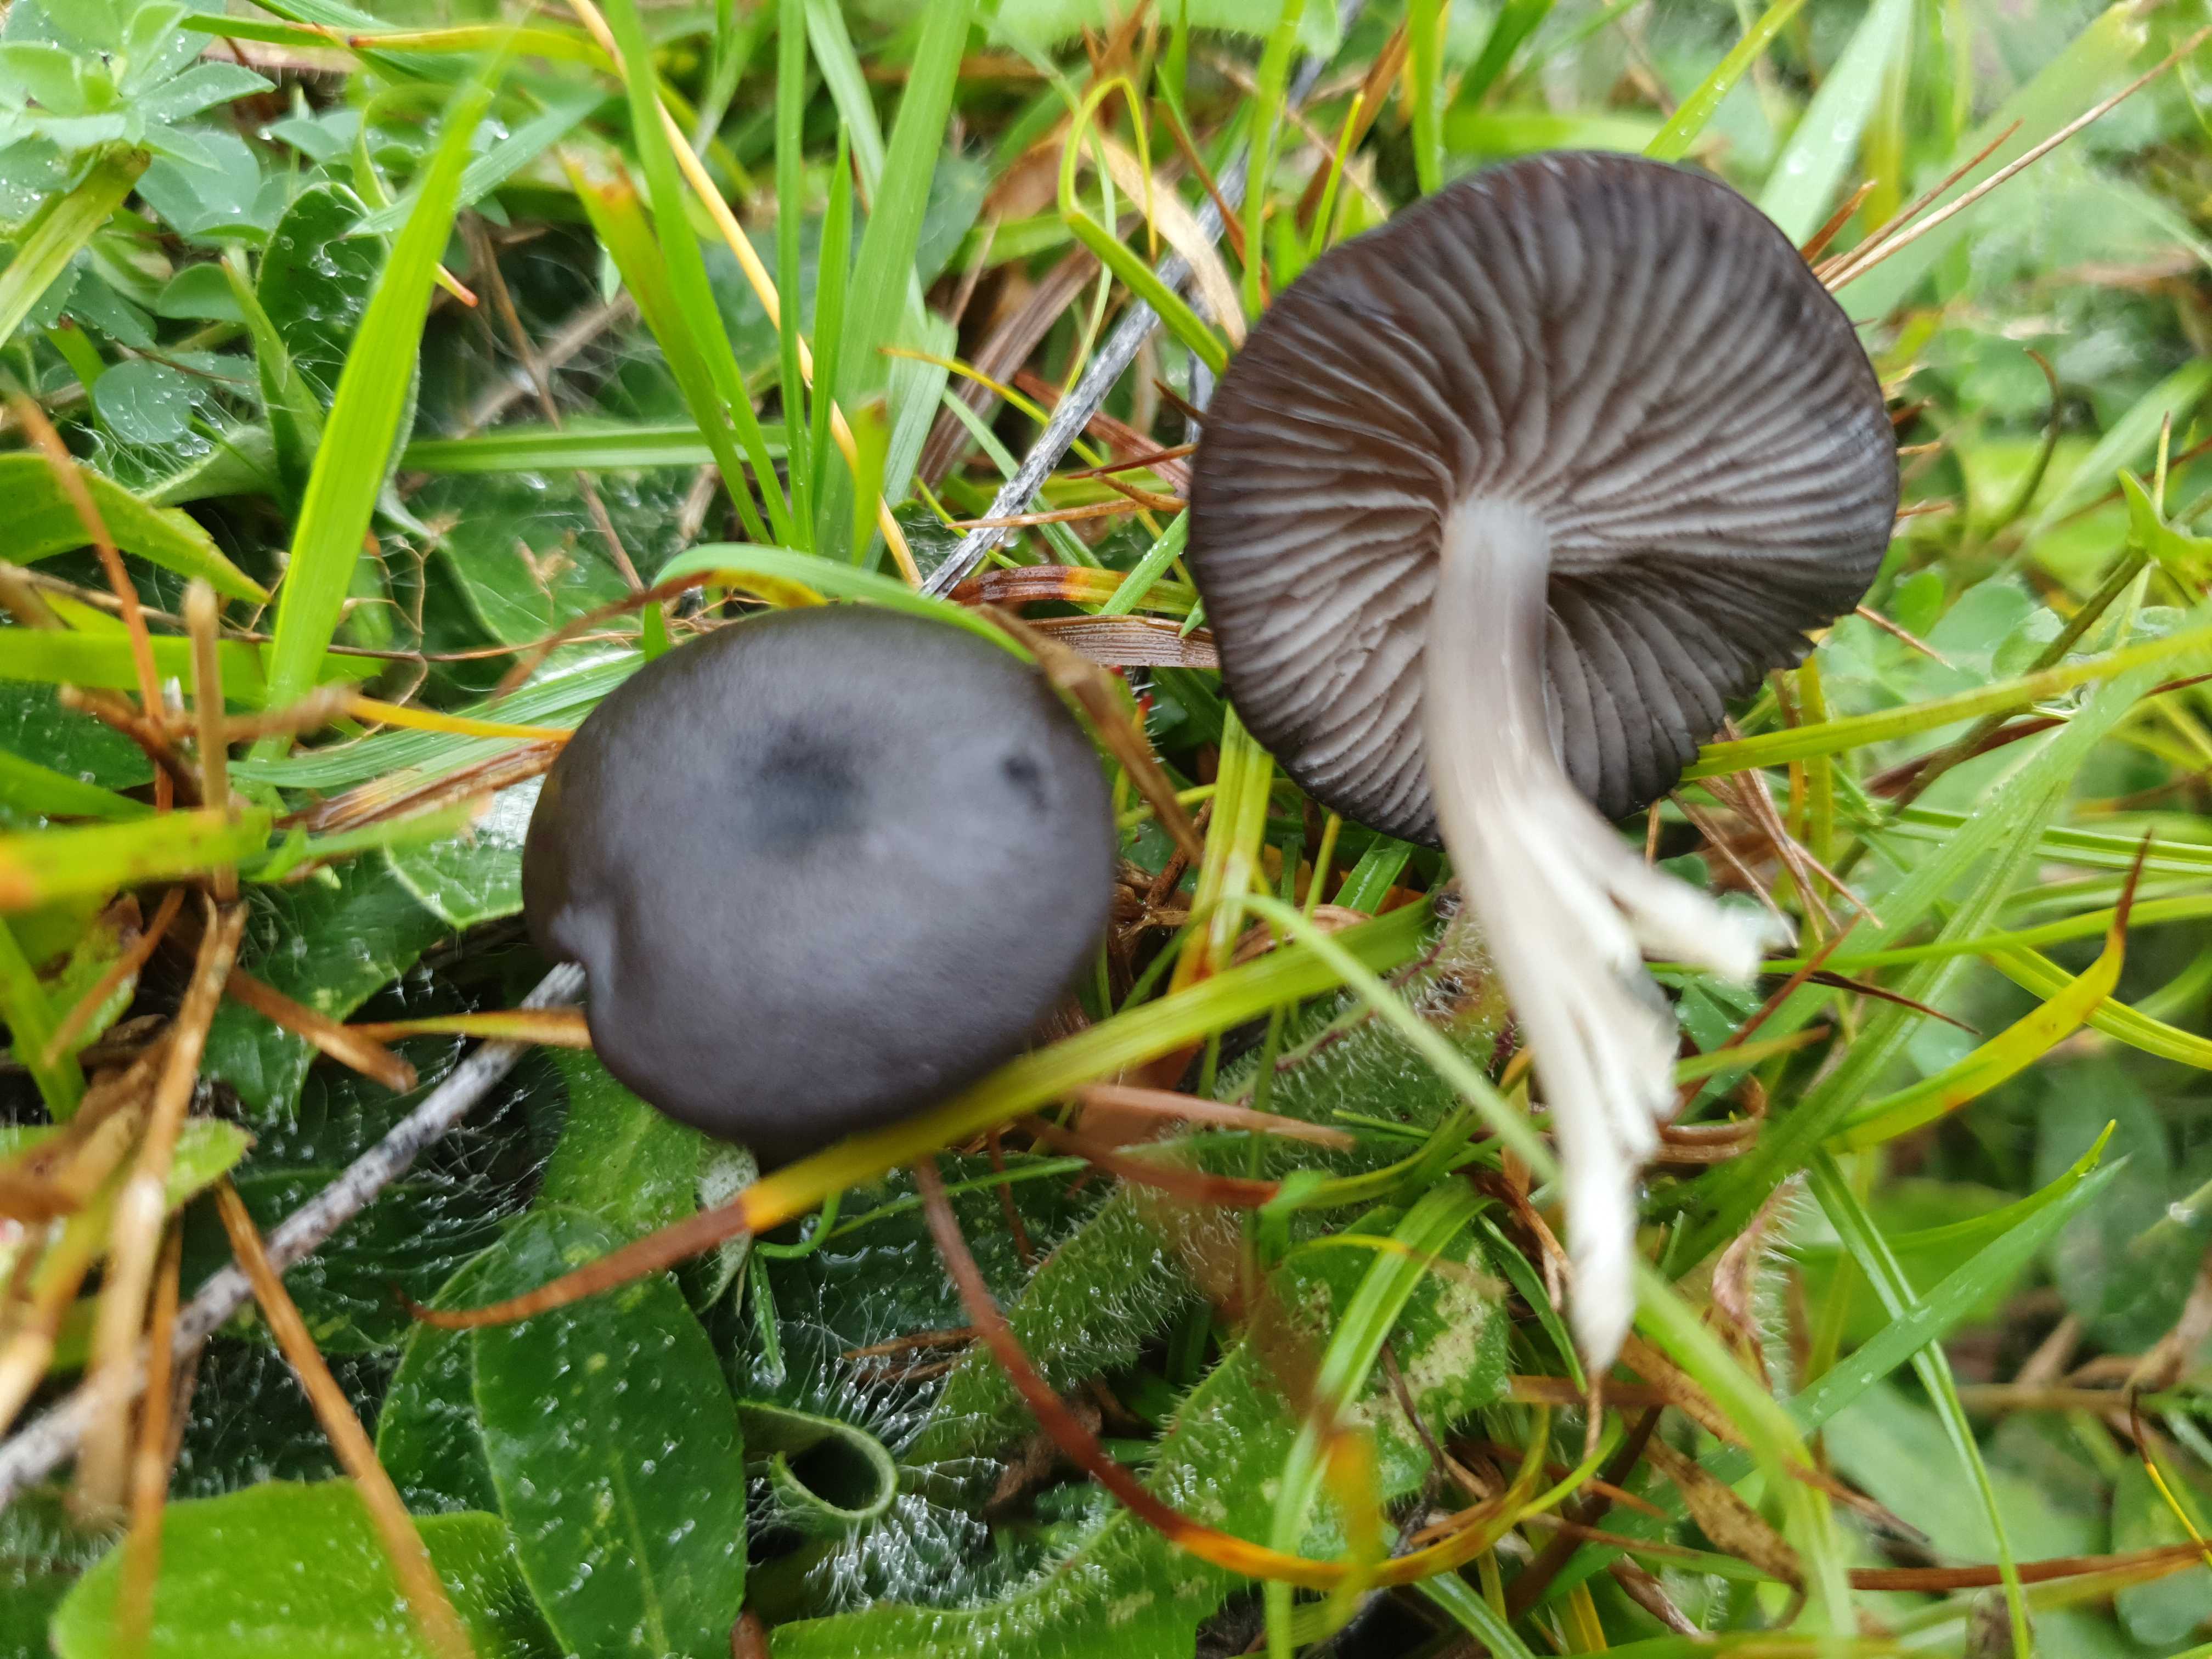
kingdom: Fungi
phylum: Basidiomycota
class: Agaricomycetes
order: Agaricales
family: Entolomataceae
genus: Entoloma
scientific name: Entoloma
